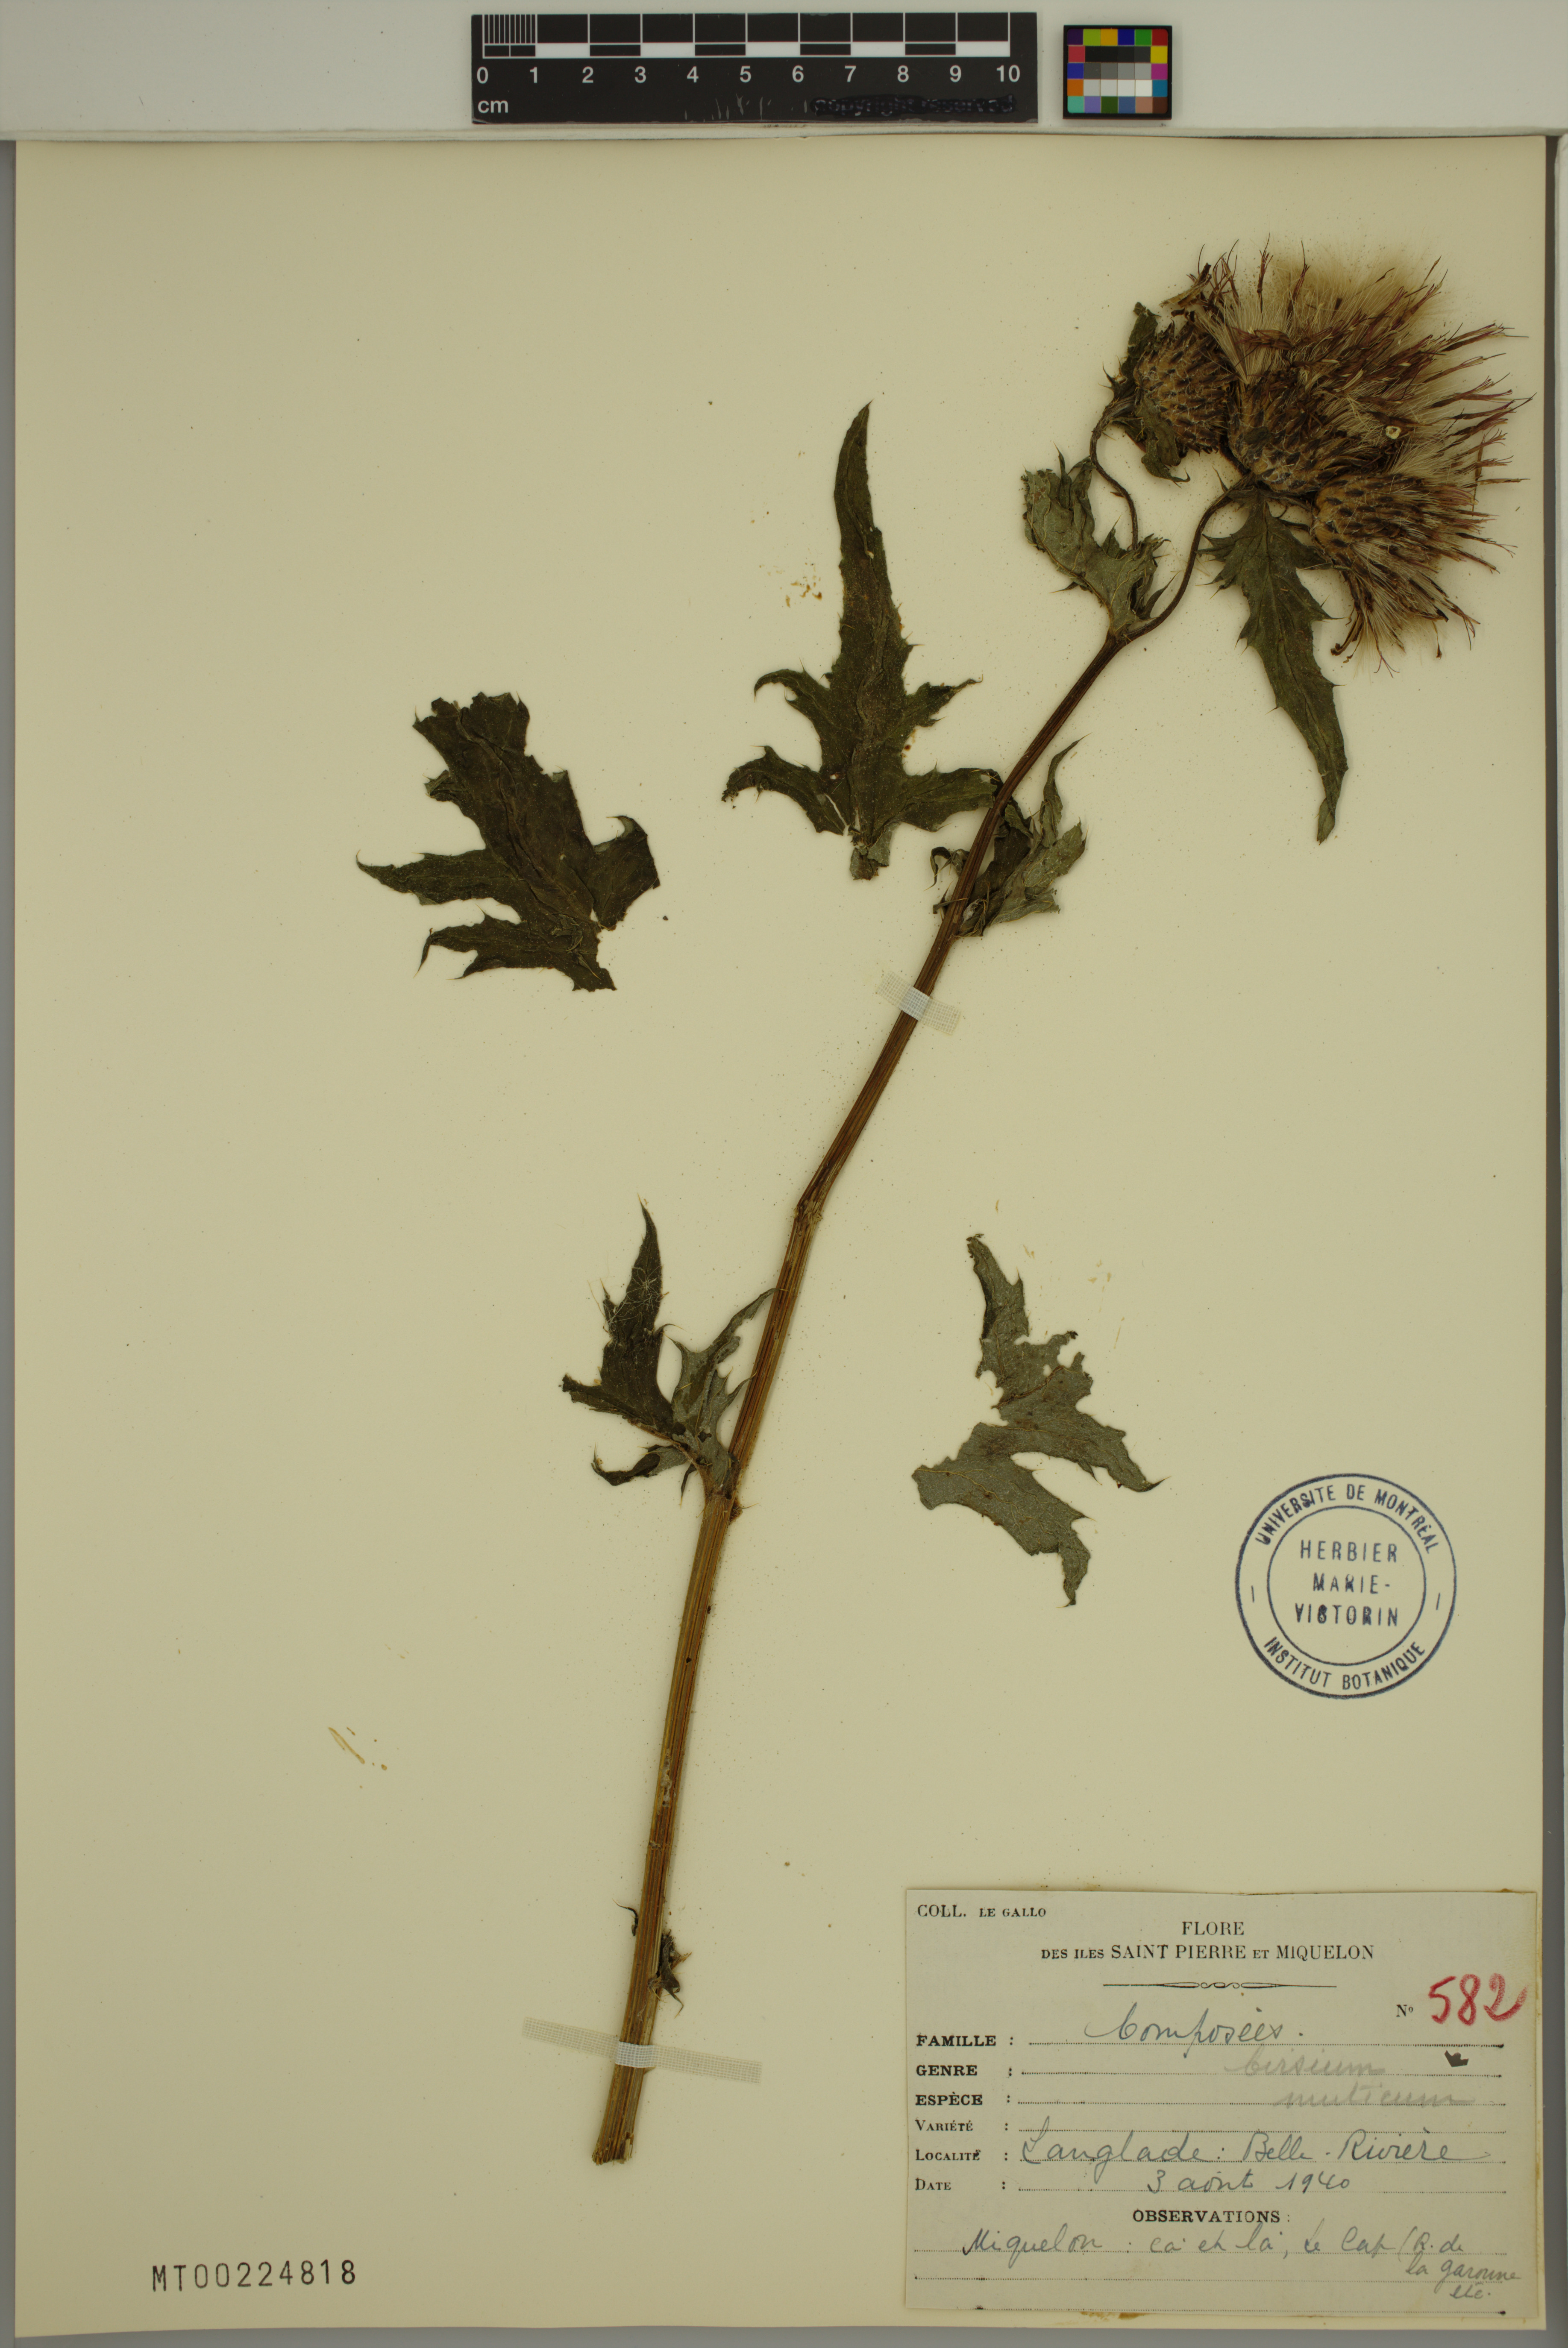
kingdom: Plantae
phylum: Tracheophyta
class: Magnoliopsida
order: Asterales
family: Asteraceae
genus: Cirsium
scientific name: Cirsium muticum
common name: Dunce-nettle
